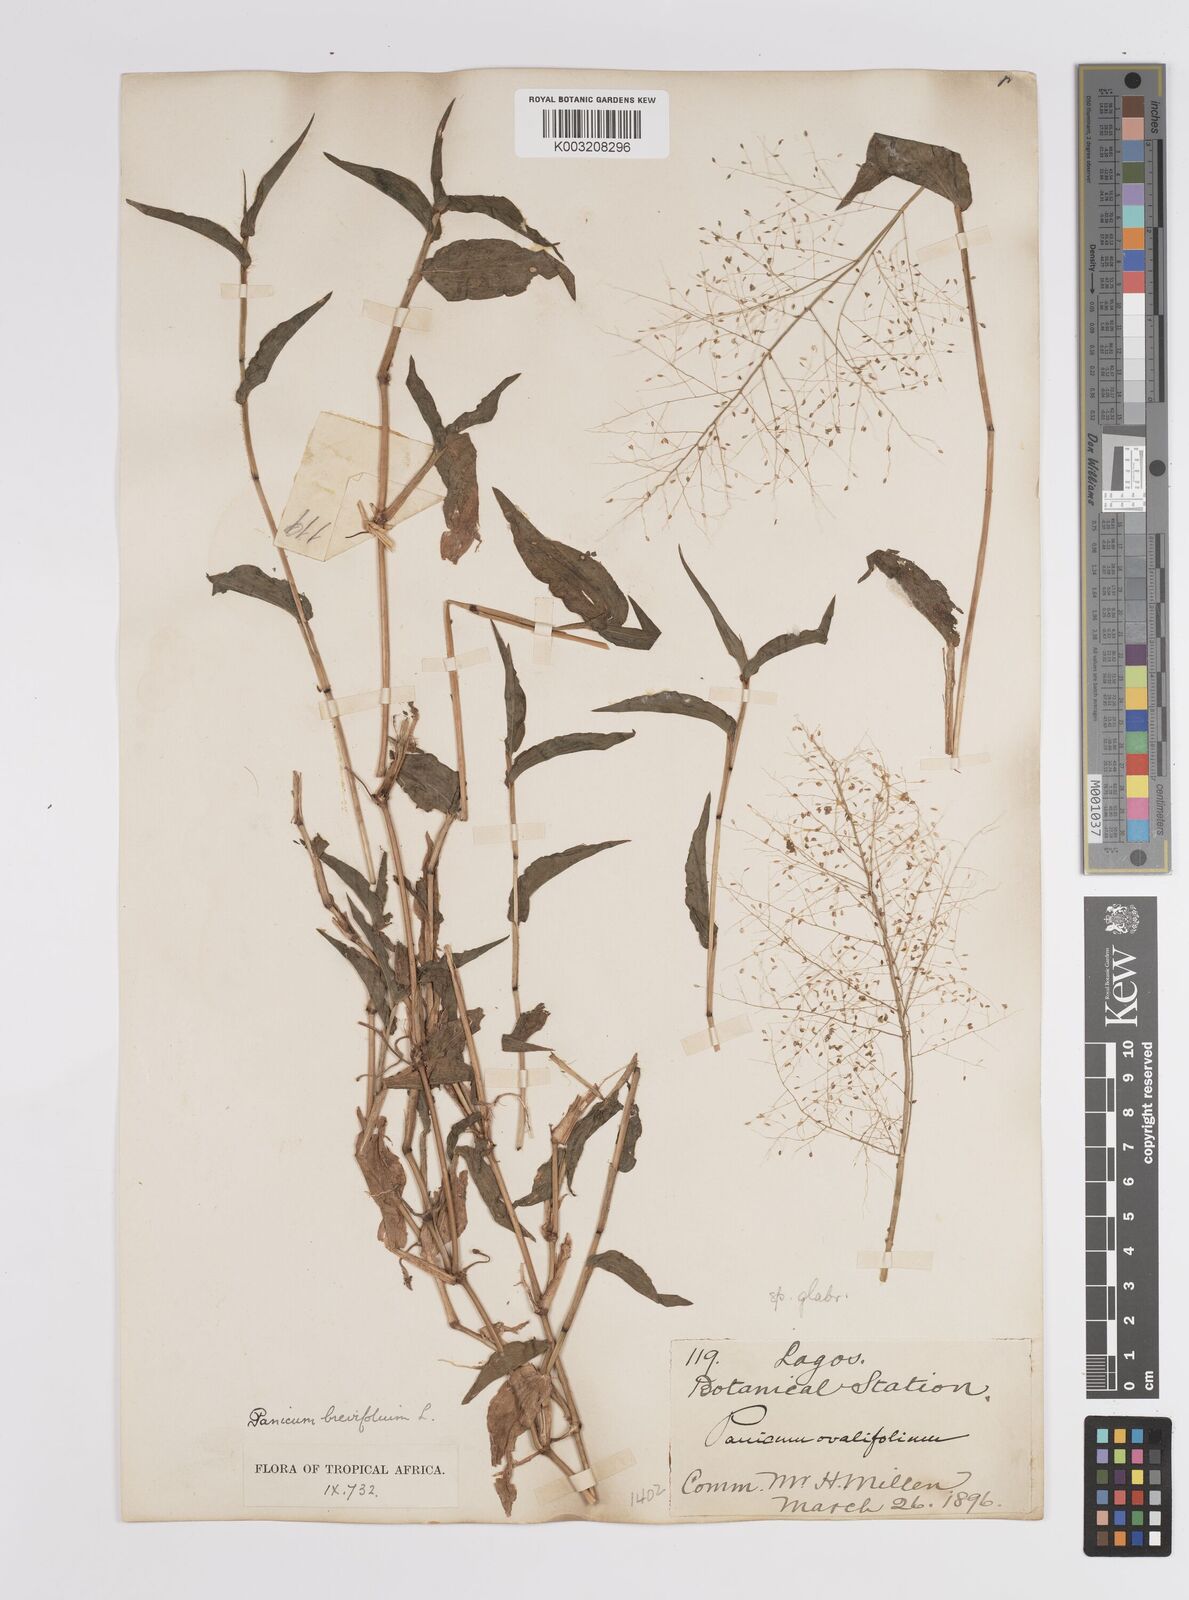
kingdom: Plantae
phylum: Tracheophyta
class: Liliopsida
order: Poales
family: Poaceae
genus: Panicum
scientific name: Panicum brevifolium
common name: Shortleaf panic grass
